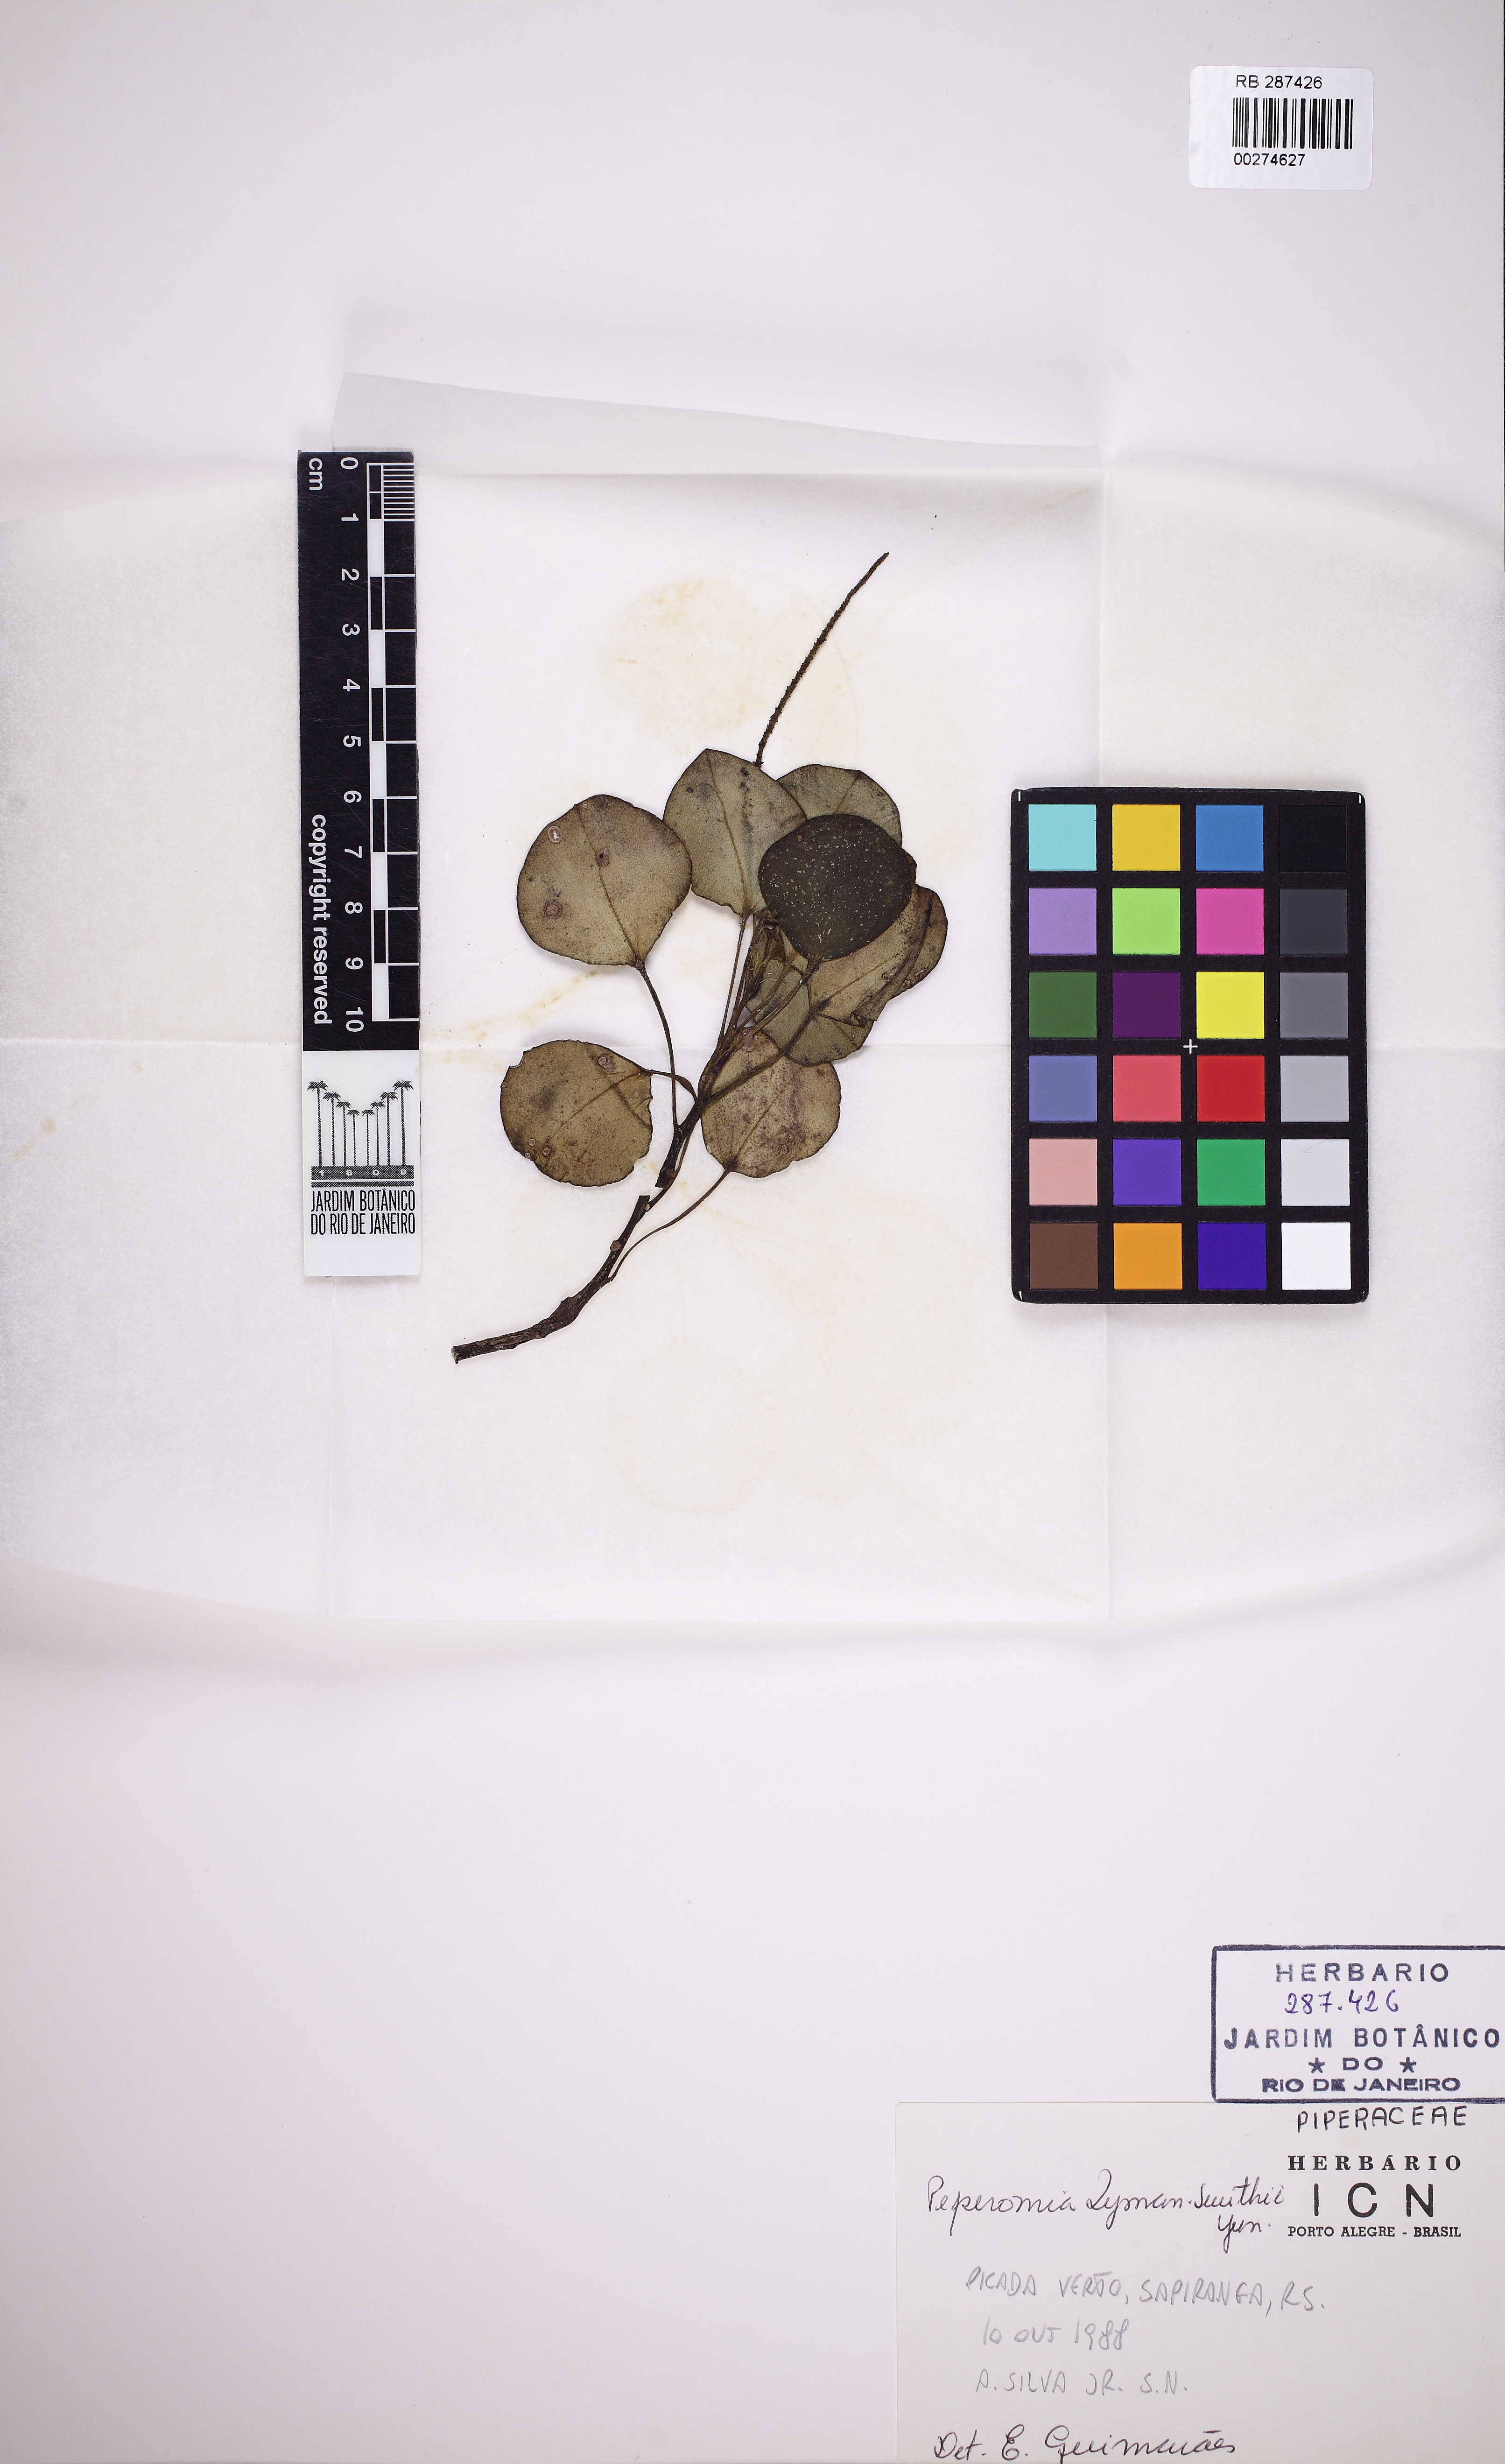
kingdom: Plantae
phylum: Tracheophyta
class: Magnoliopsida
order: Piperales
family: Piperaceae
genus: Peperomia
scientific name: Peperomia lyman-smithii
